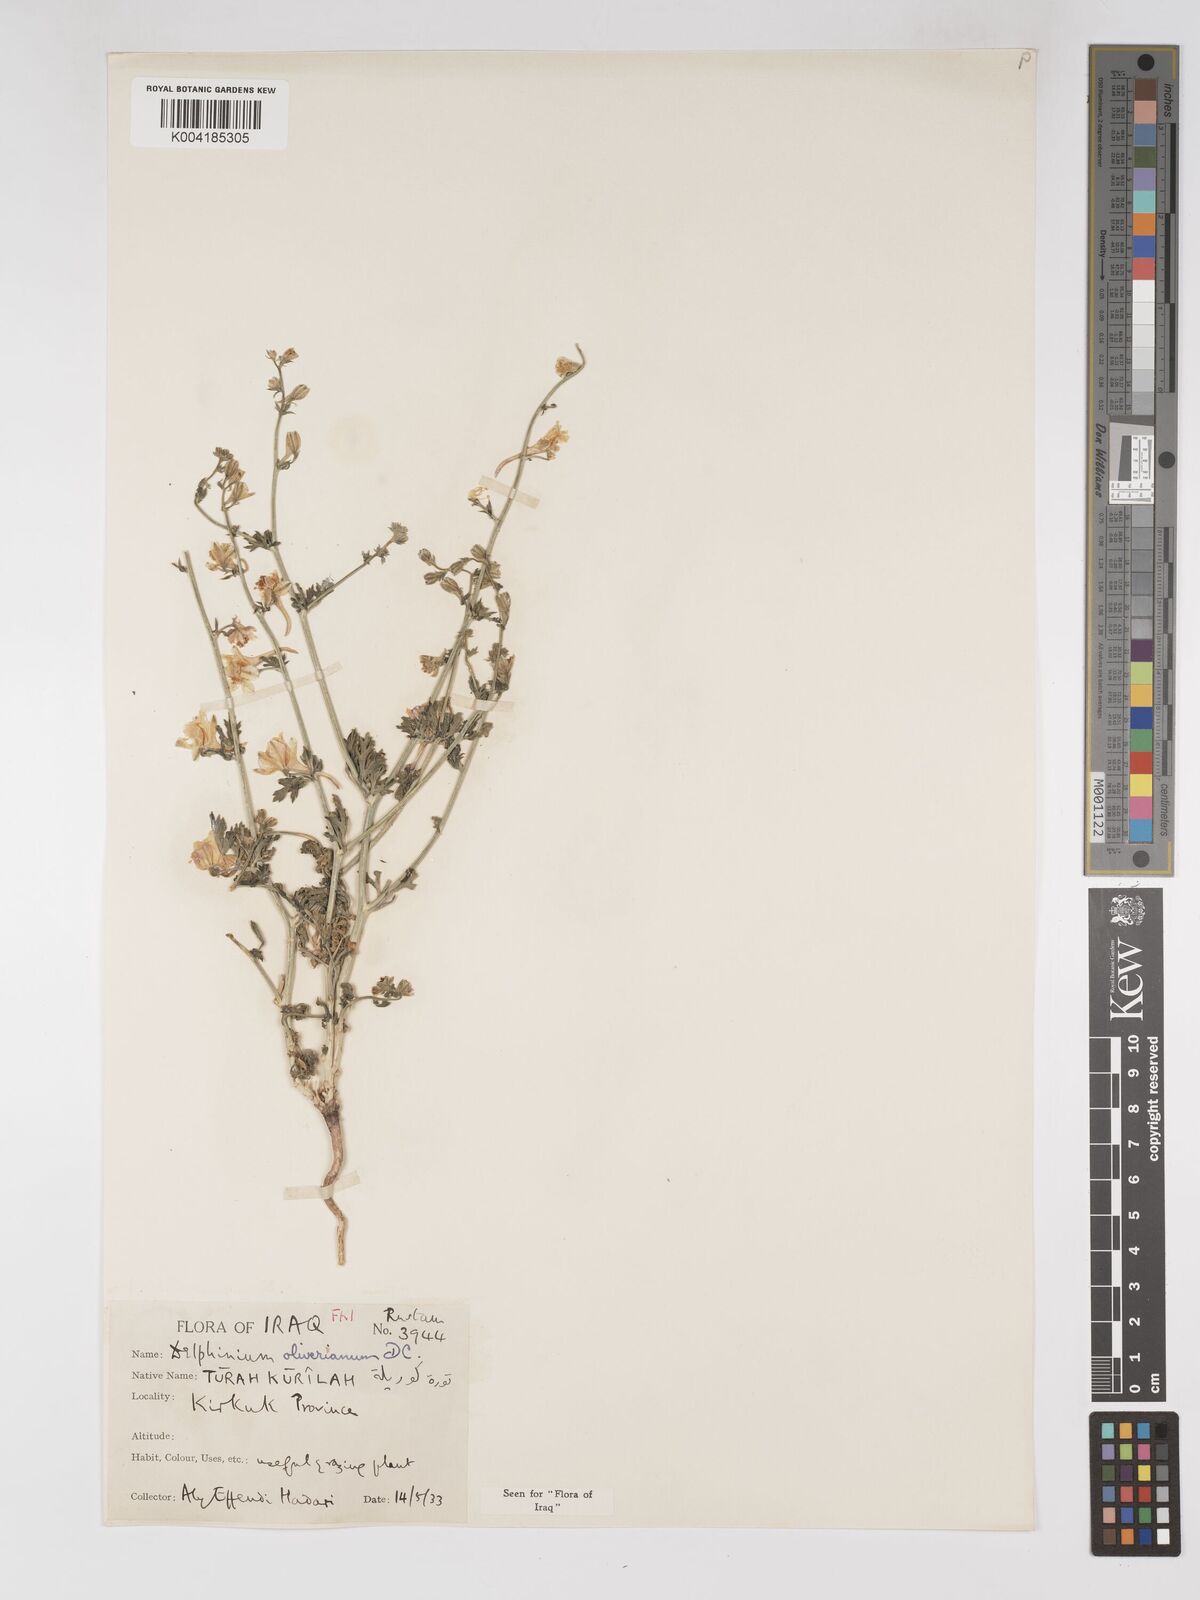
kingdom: Plantae
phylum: Tracheophyta
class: Magnoliopsida
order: Ranunculales
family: Ranunculaceae
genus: Delphinium
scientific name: Delphinium oliverianum
